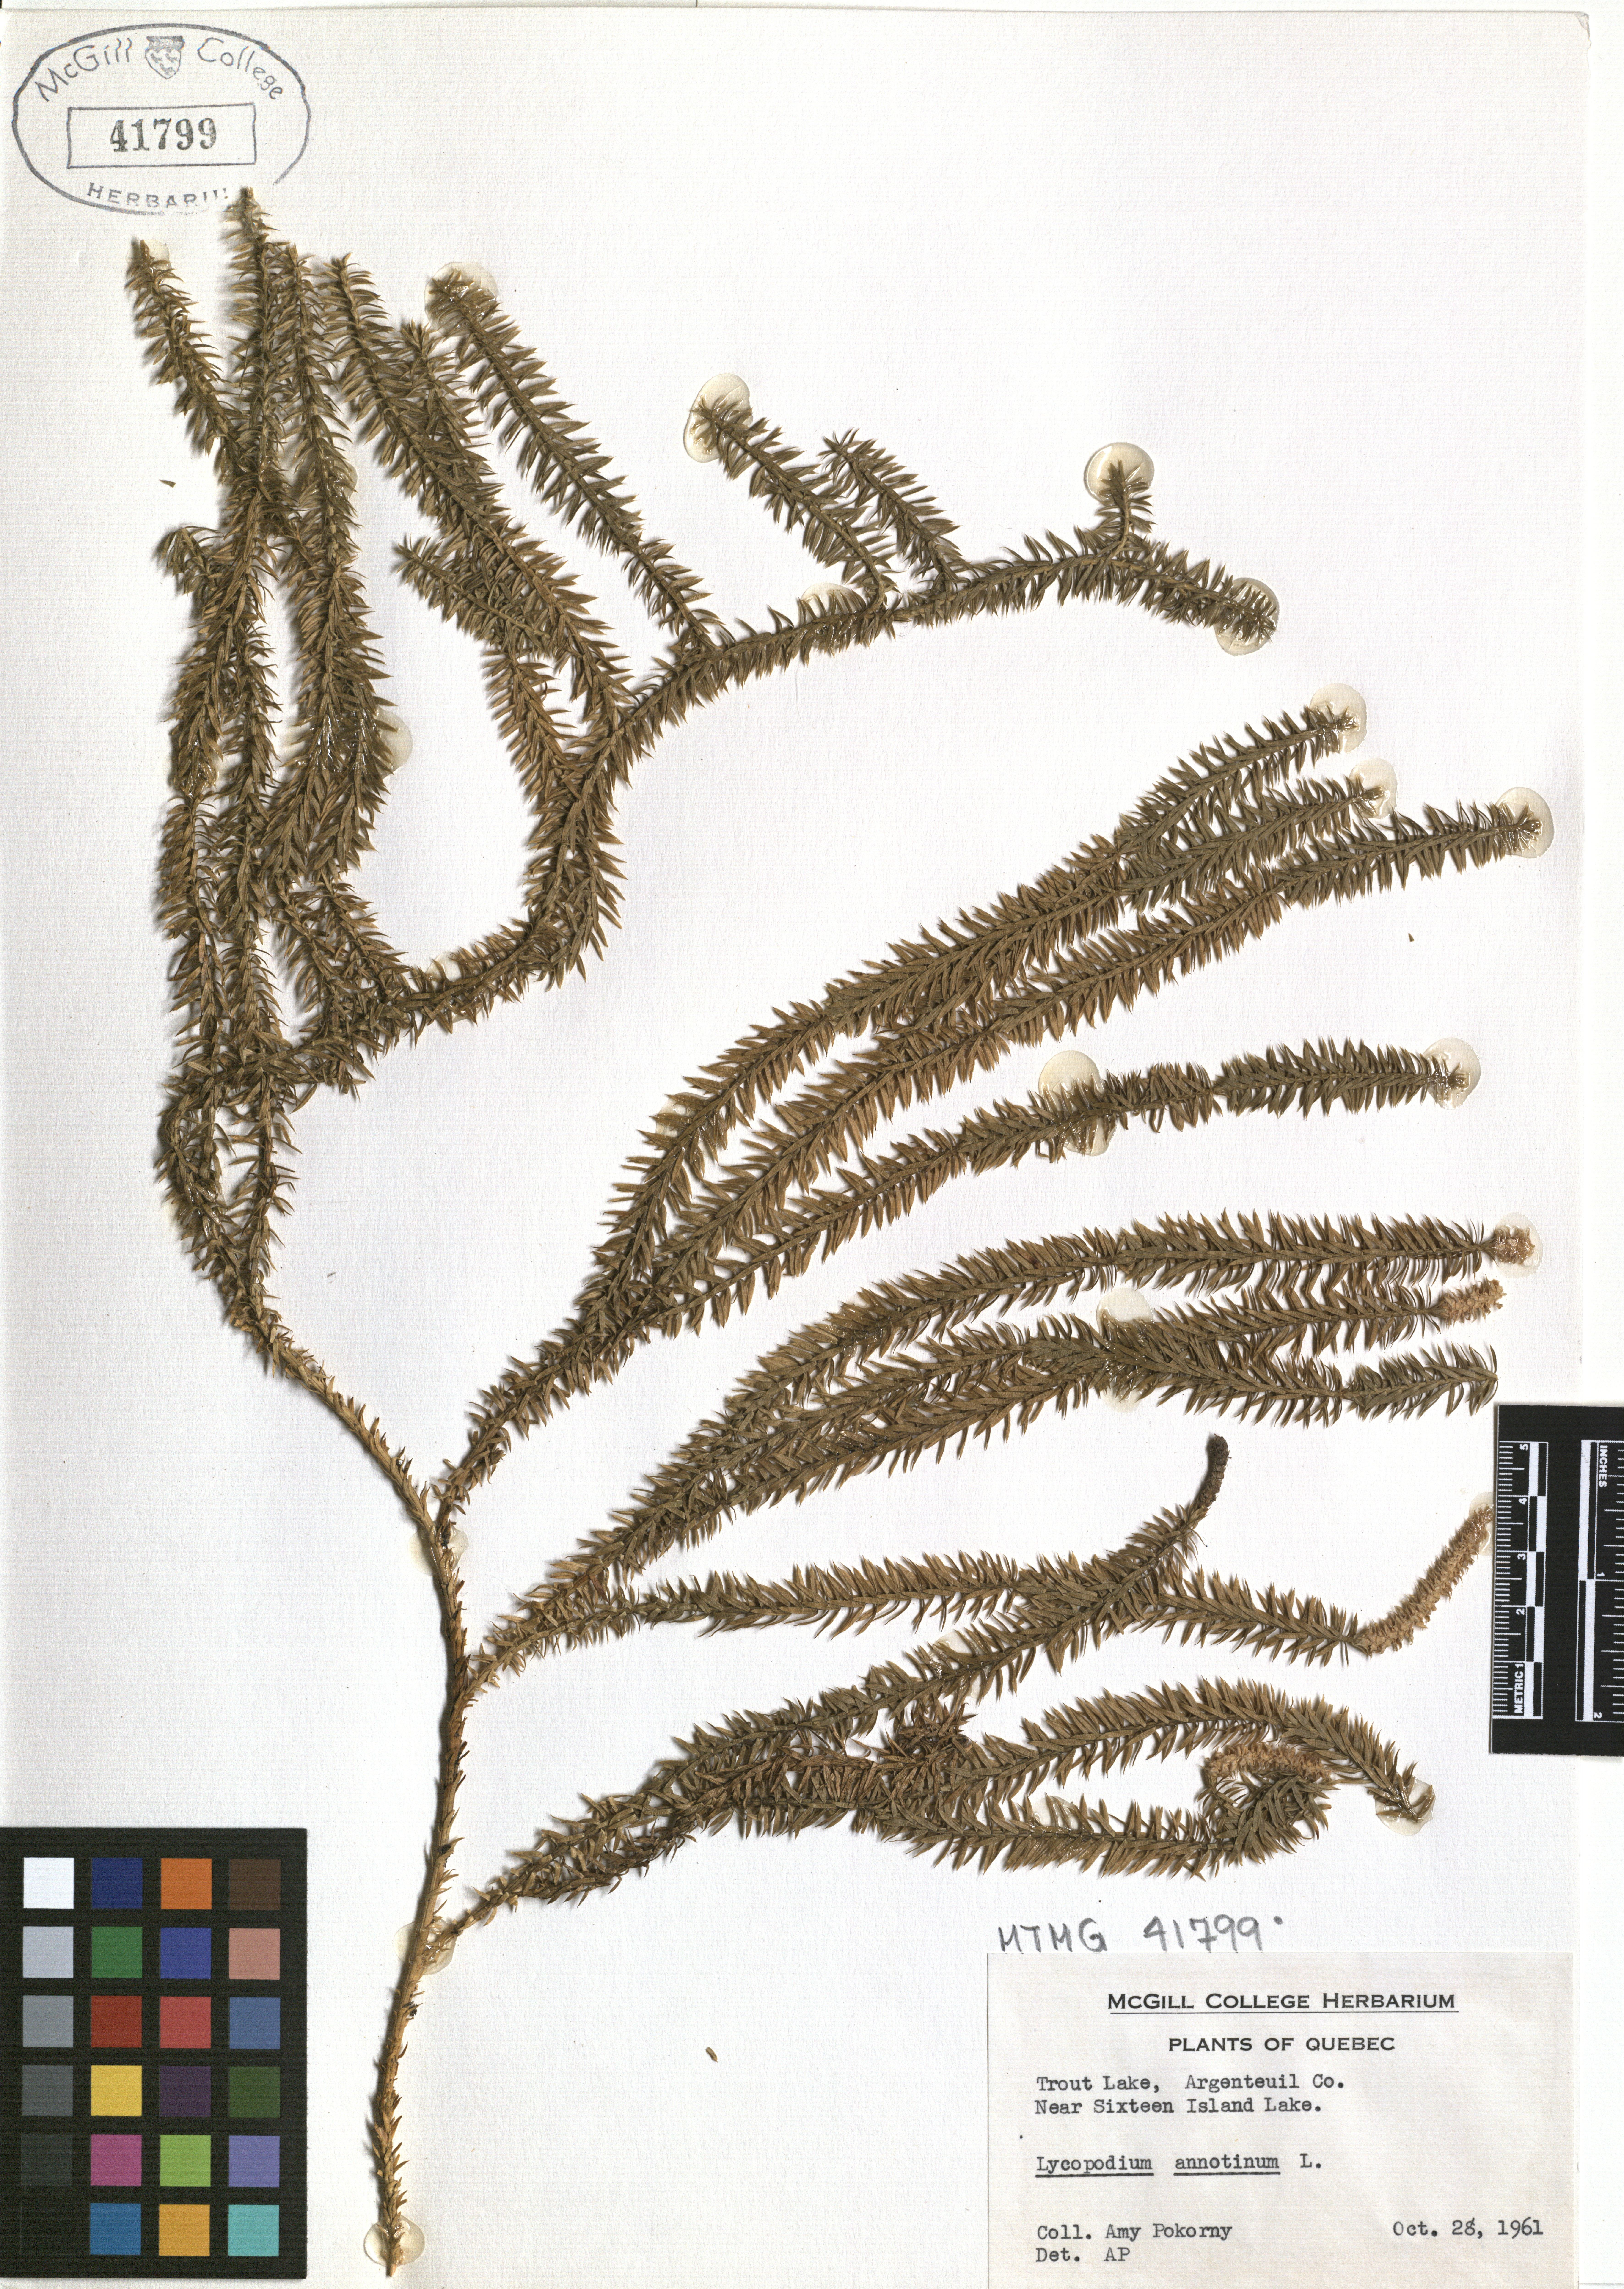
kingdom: Plantae
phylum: Tracheophyta
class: Lycopodiopsida
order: Lycopodiales
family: Lycopodiaceae
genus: Spinulum
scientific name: Spinulum annotinum
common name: Interrupted club-moss
